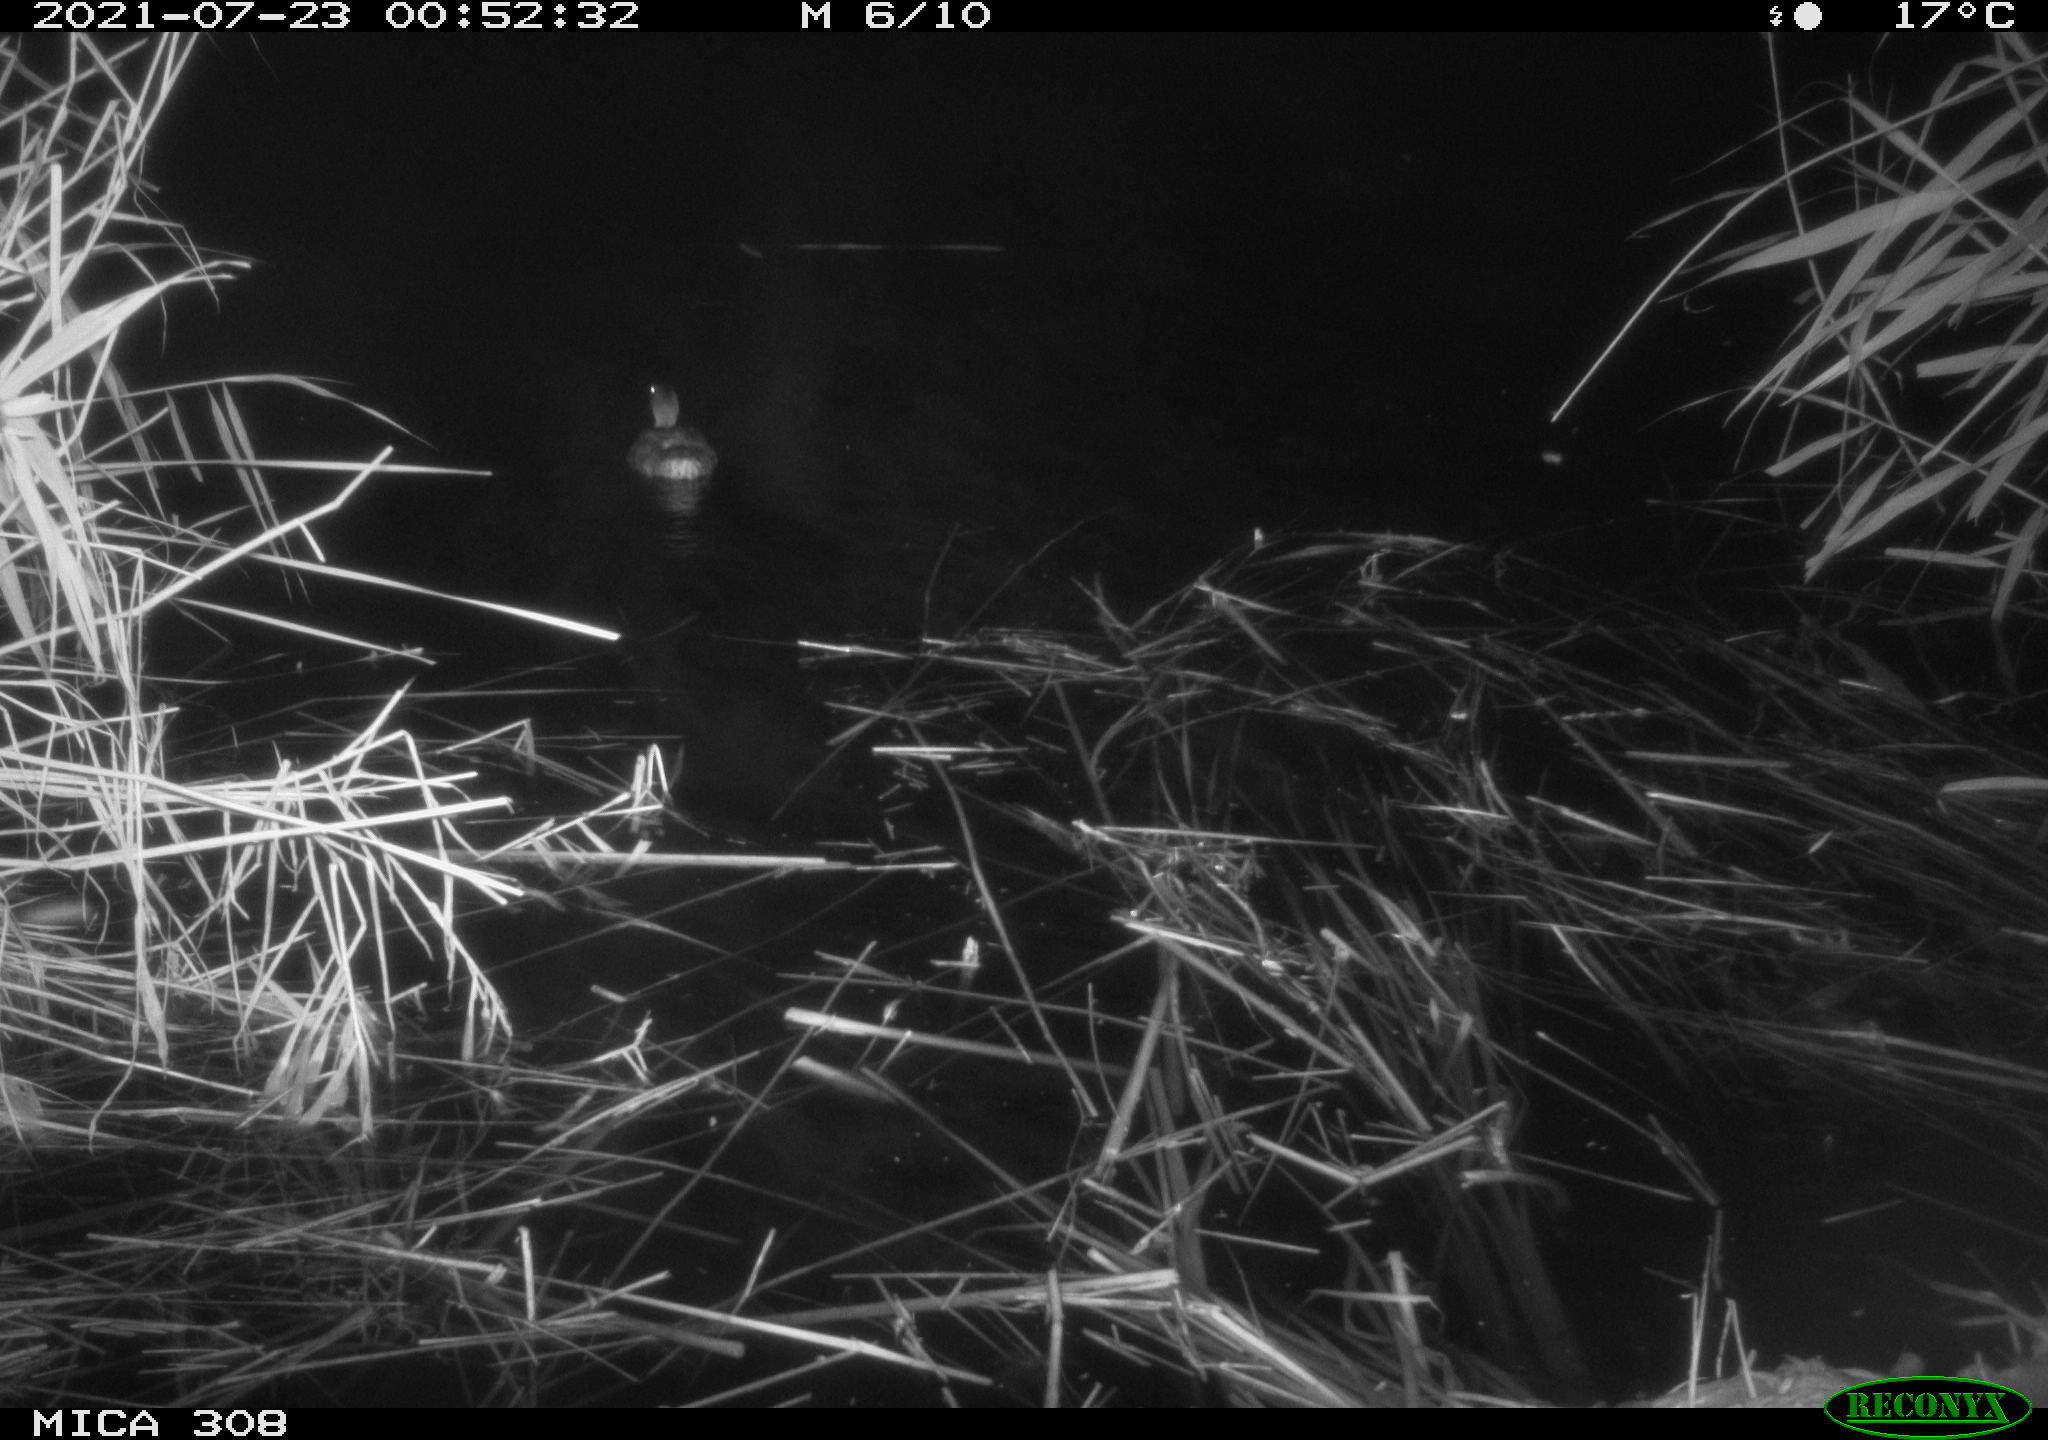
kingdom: Animalia
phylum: Chordata
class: Aves
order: Anseriformes
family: Anatidae
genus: Anas
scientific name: Anas platyrhynchos
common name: Mallard
